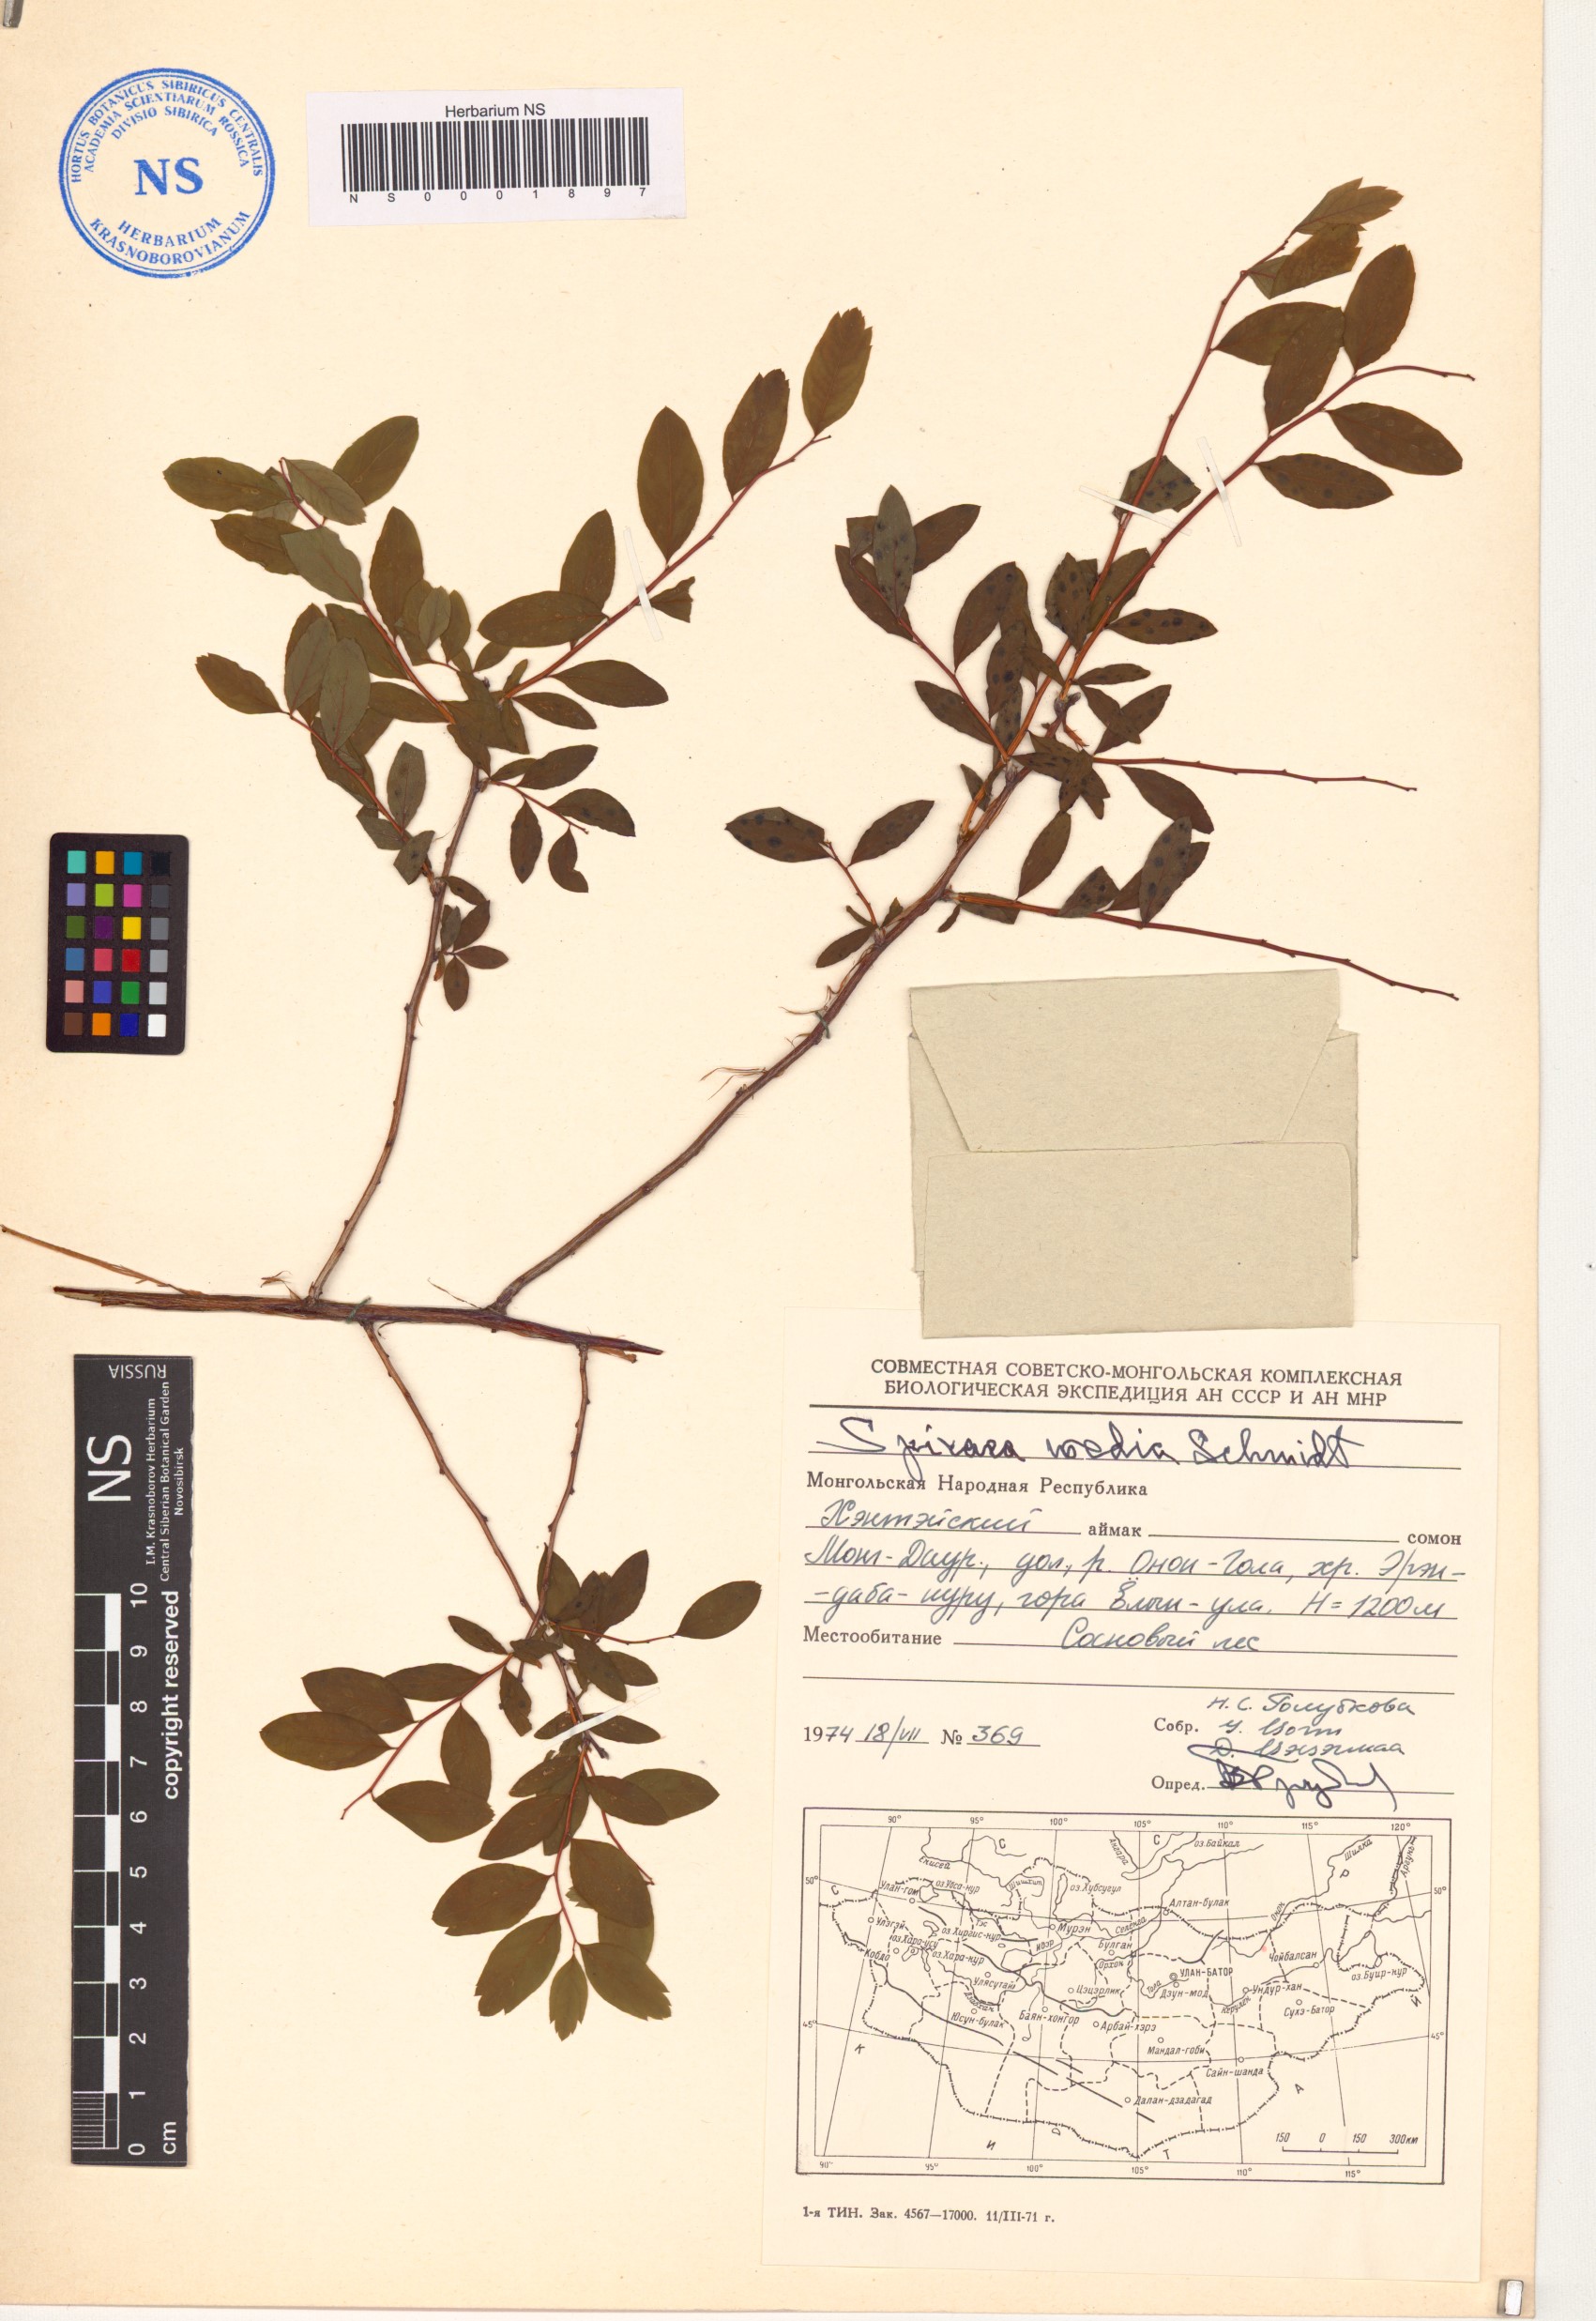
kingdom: Plantae
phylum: Tracheophyta
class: Magnoliopsida
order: Rosales
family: Rosaceae
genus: Spiraea
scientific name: Spiraea media
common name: Russian spiraea
